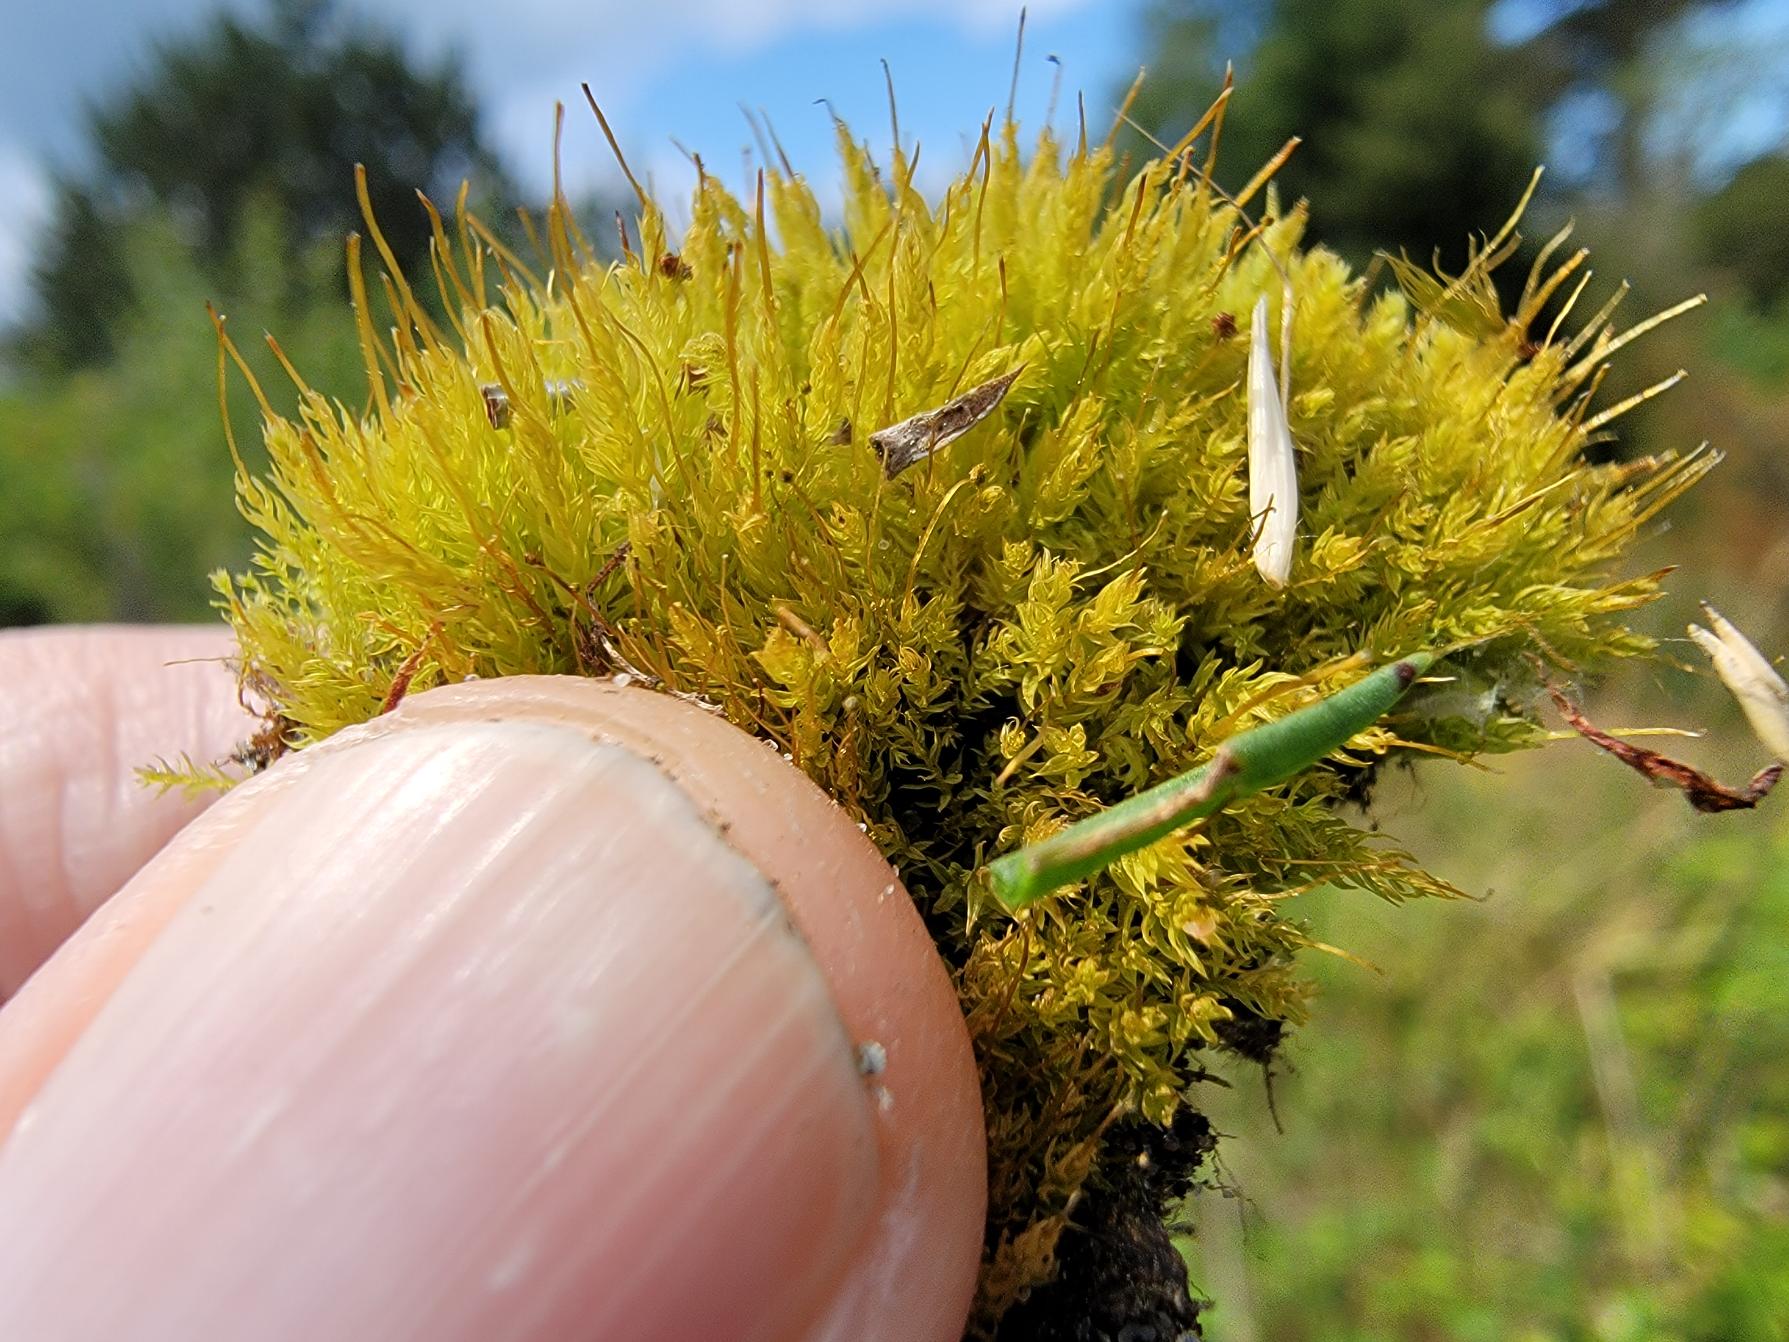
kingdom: Plantae
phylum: Bryophyta
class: Bryopsida
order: Aulacomniales
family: Aulacomniaceae
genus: Aulacomnium
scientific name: Aulacomnium androgynum
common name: Kugle-filtmos
